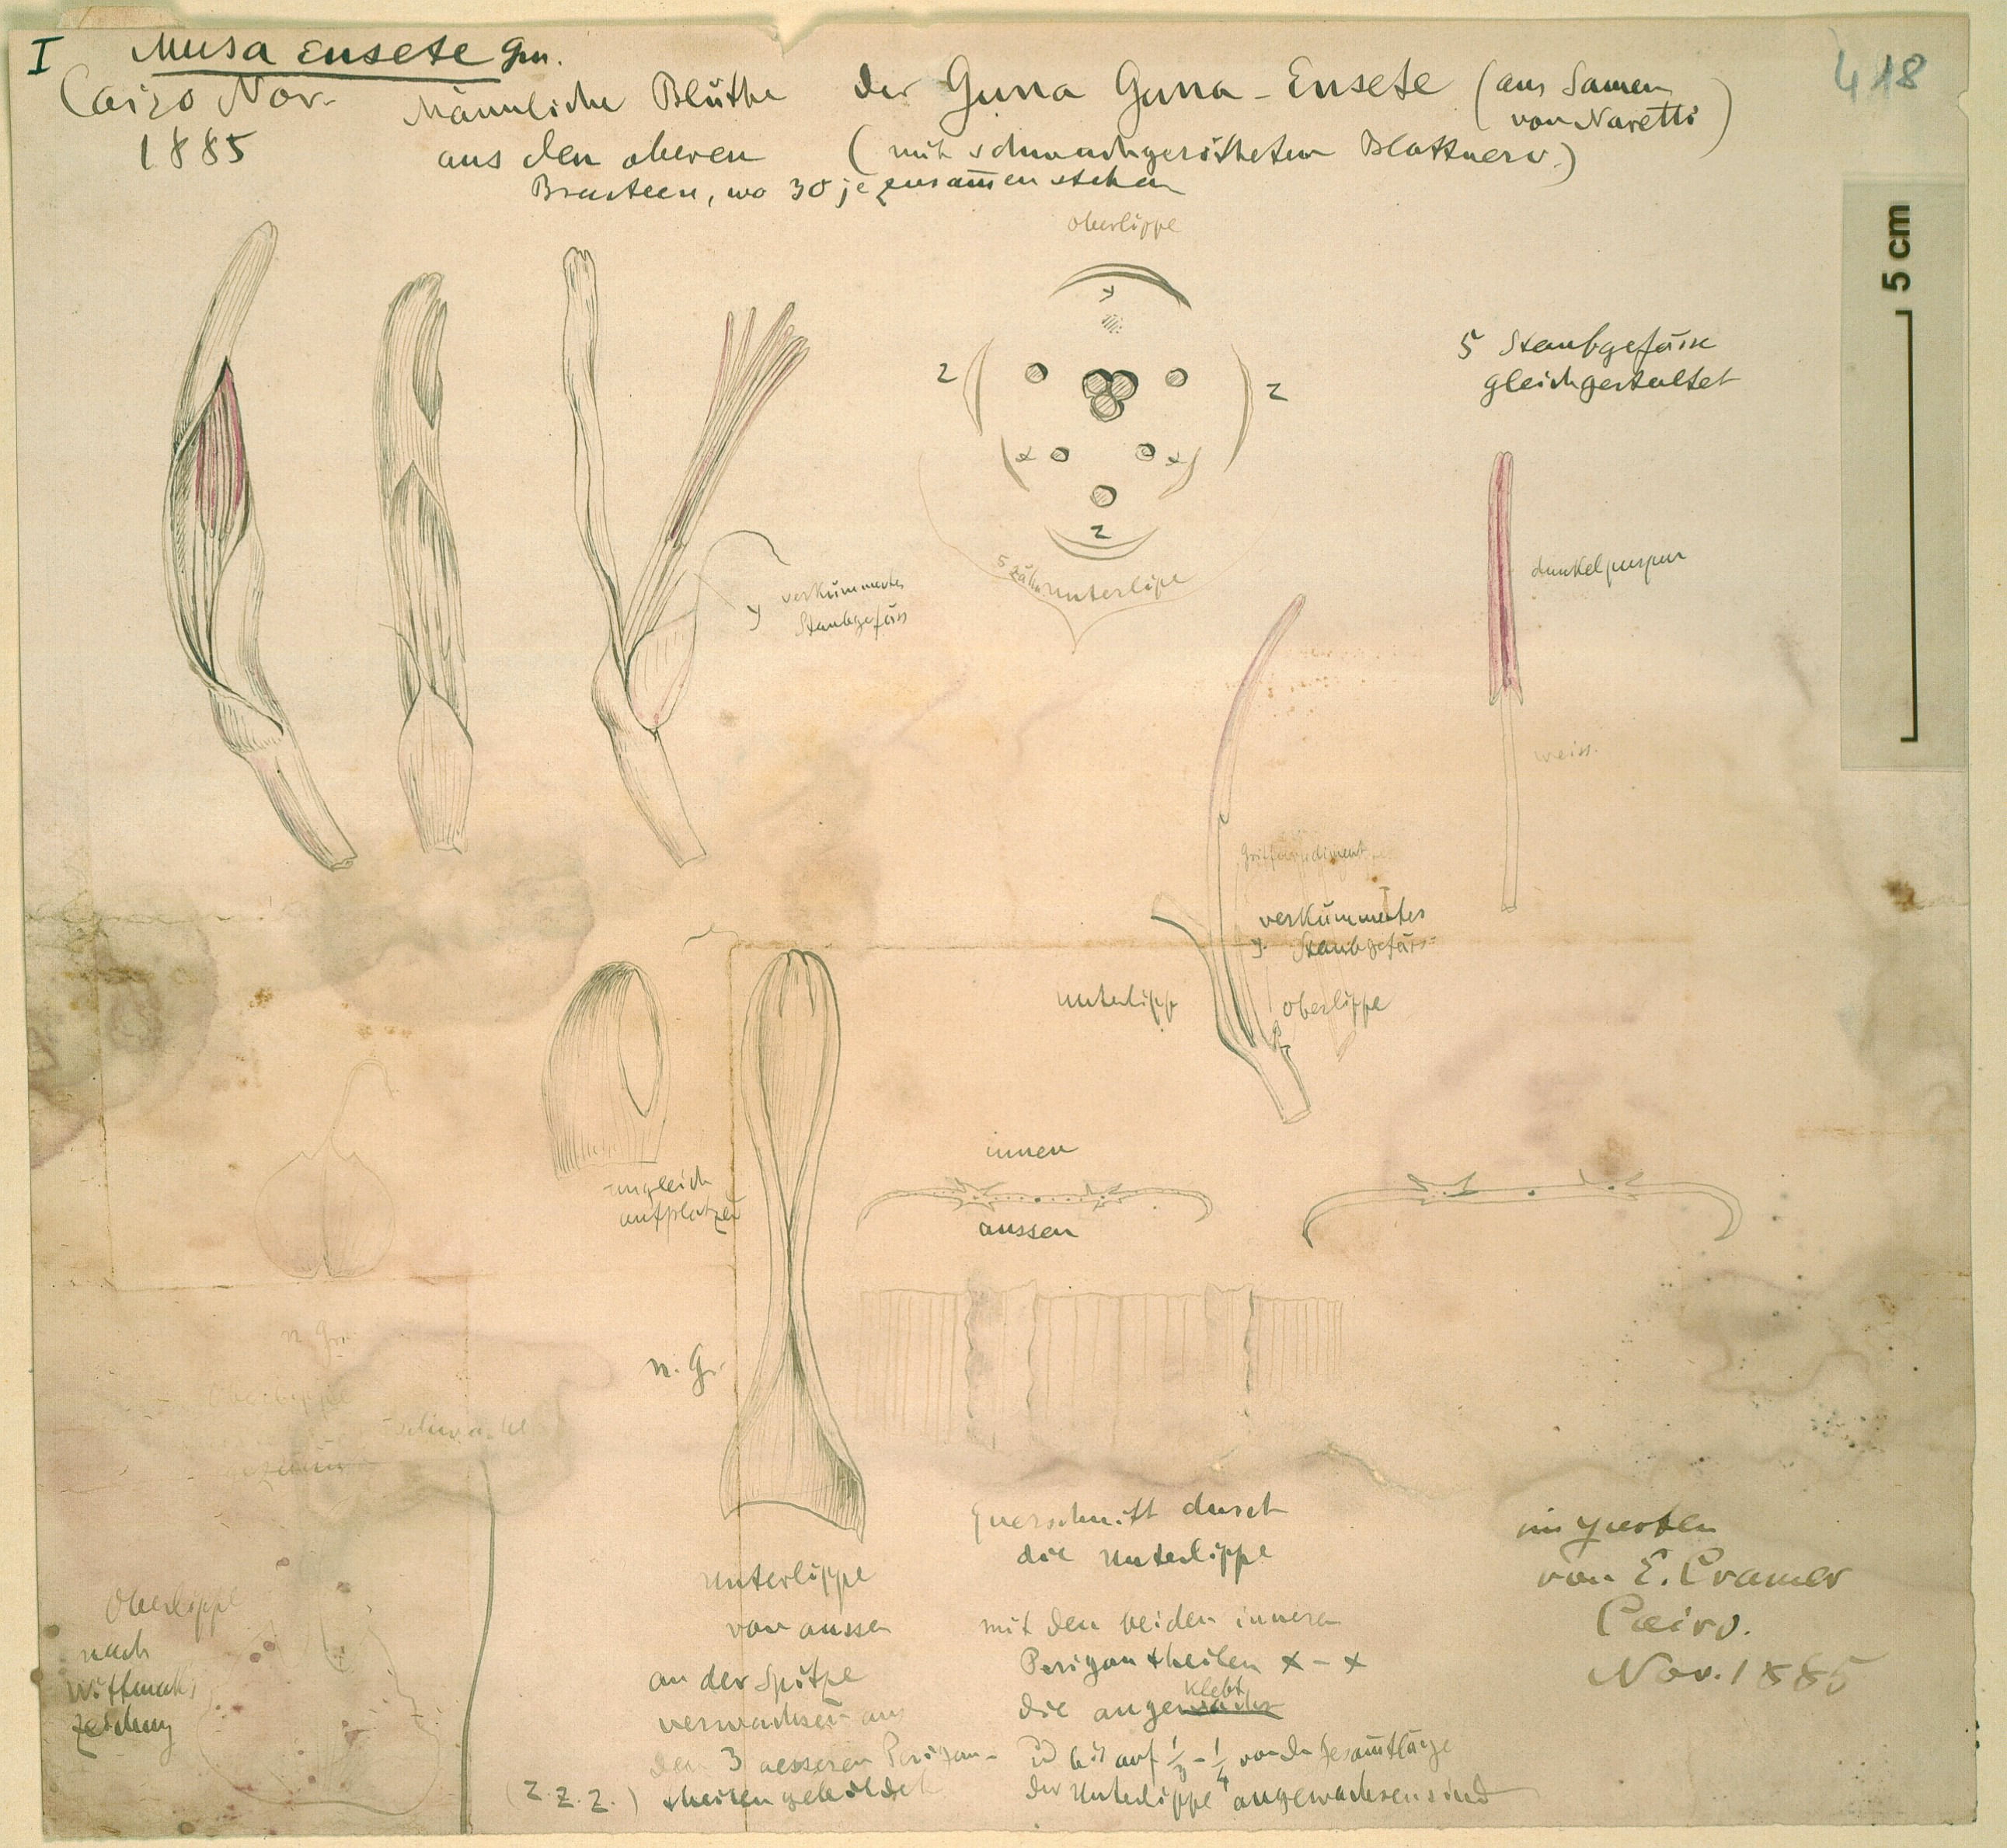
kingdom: Plantae
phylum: Tracheophyta
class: Liliopsida
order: Zingiberales
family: Musaceae
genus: Ensete
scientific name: Ensete ventricosum
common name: Abyssinian banana
